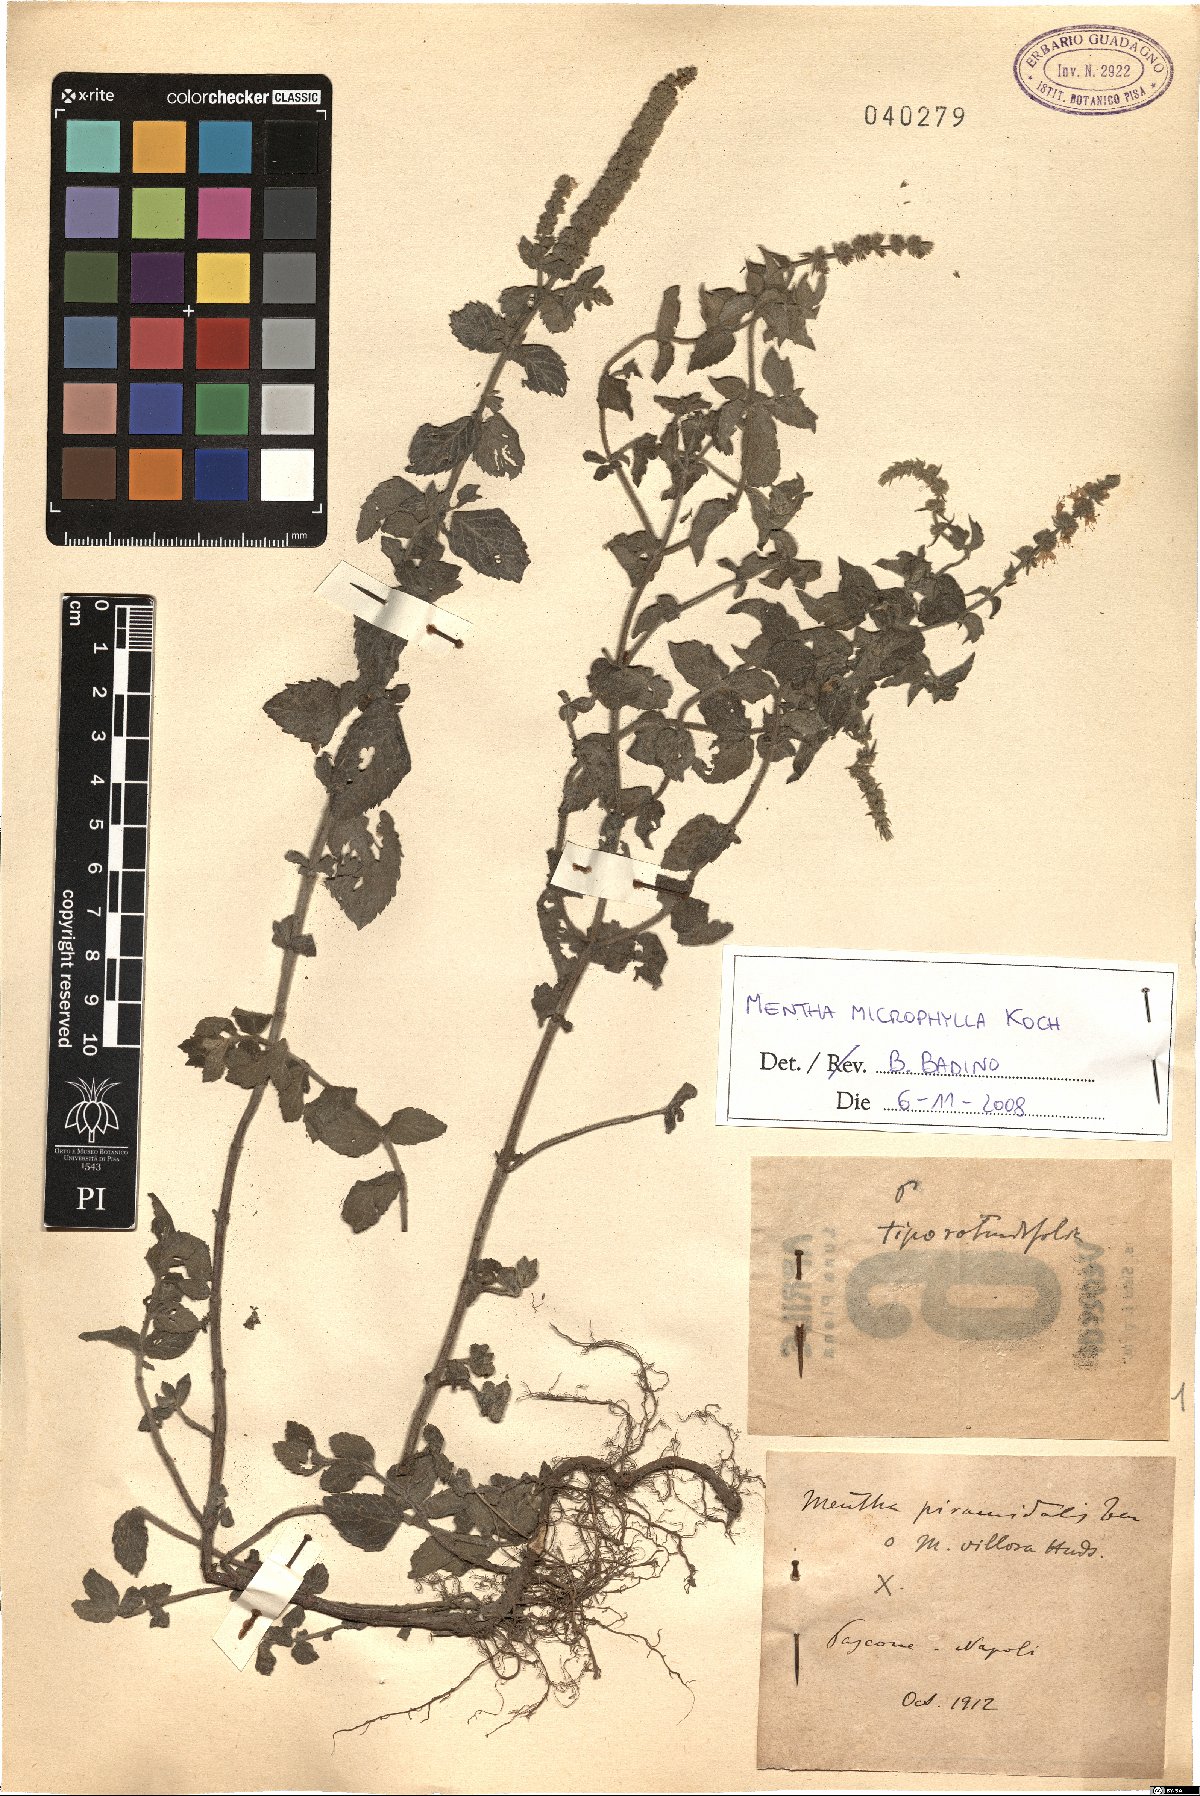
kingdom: Plantae
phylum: Tracheophyta
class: Magnoliopsida
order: Lamiales
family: Lamiaceae
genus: Mentha
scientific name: Mentha spicata
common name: Spearmint
